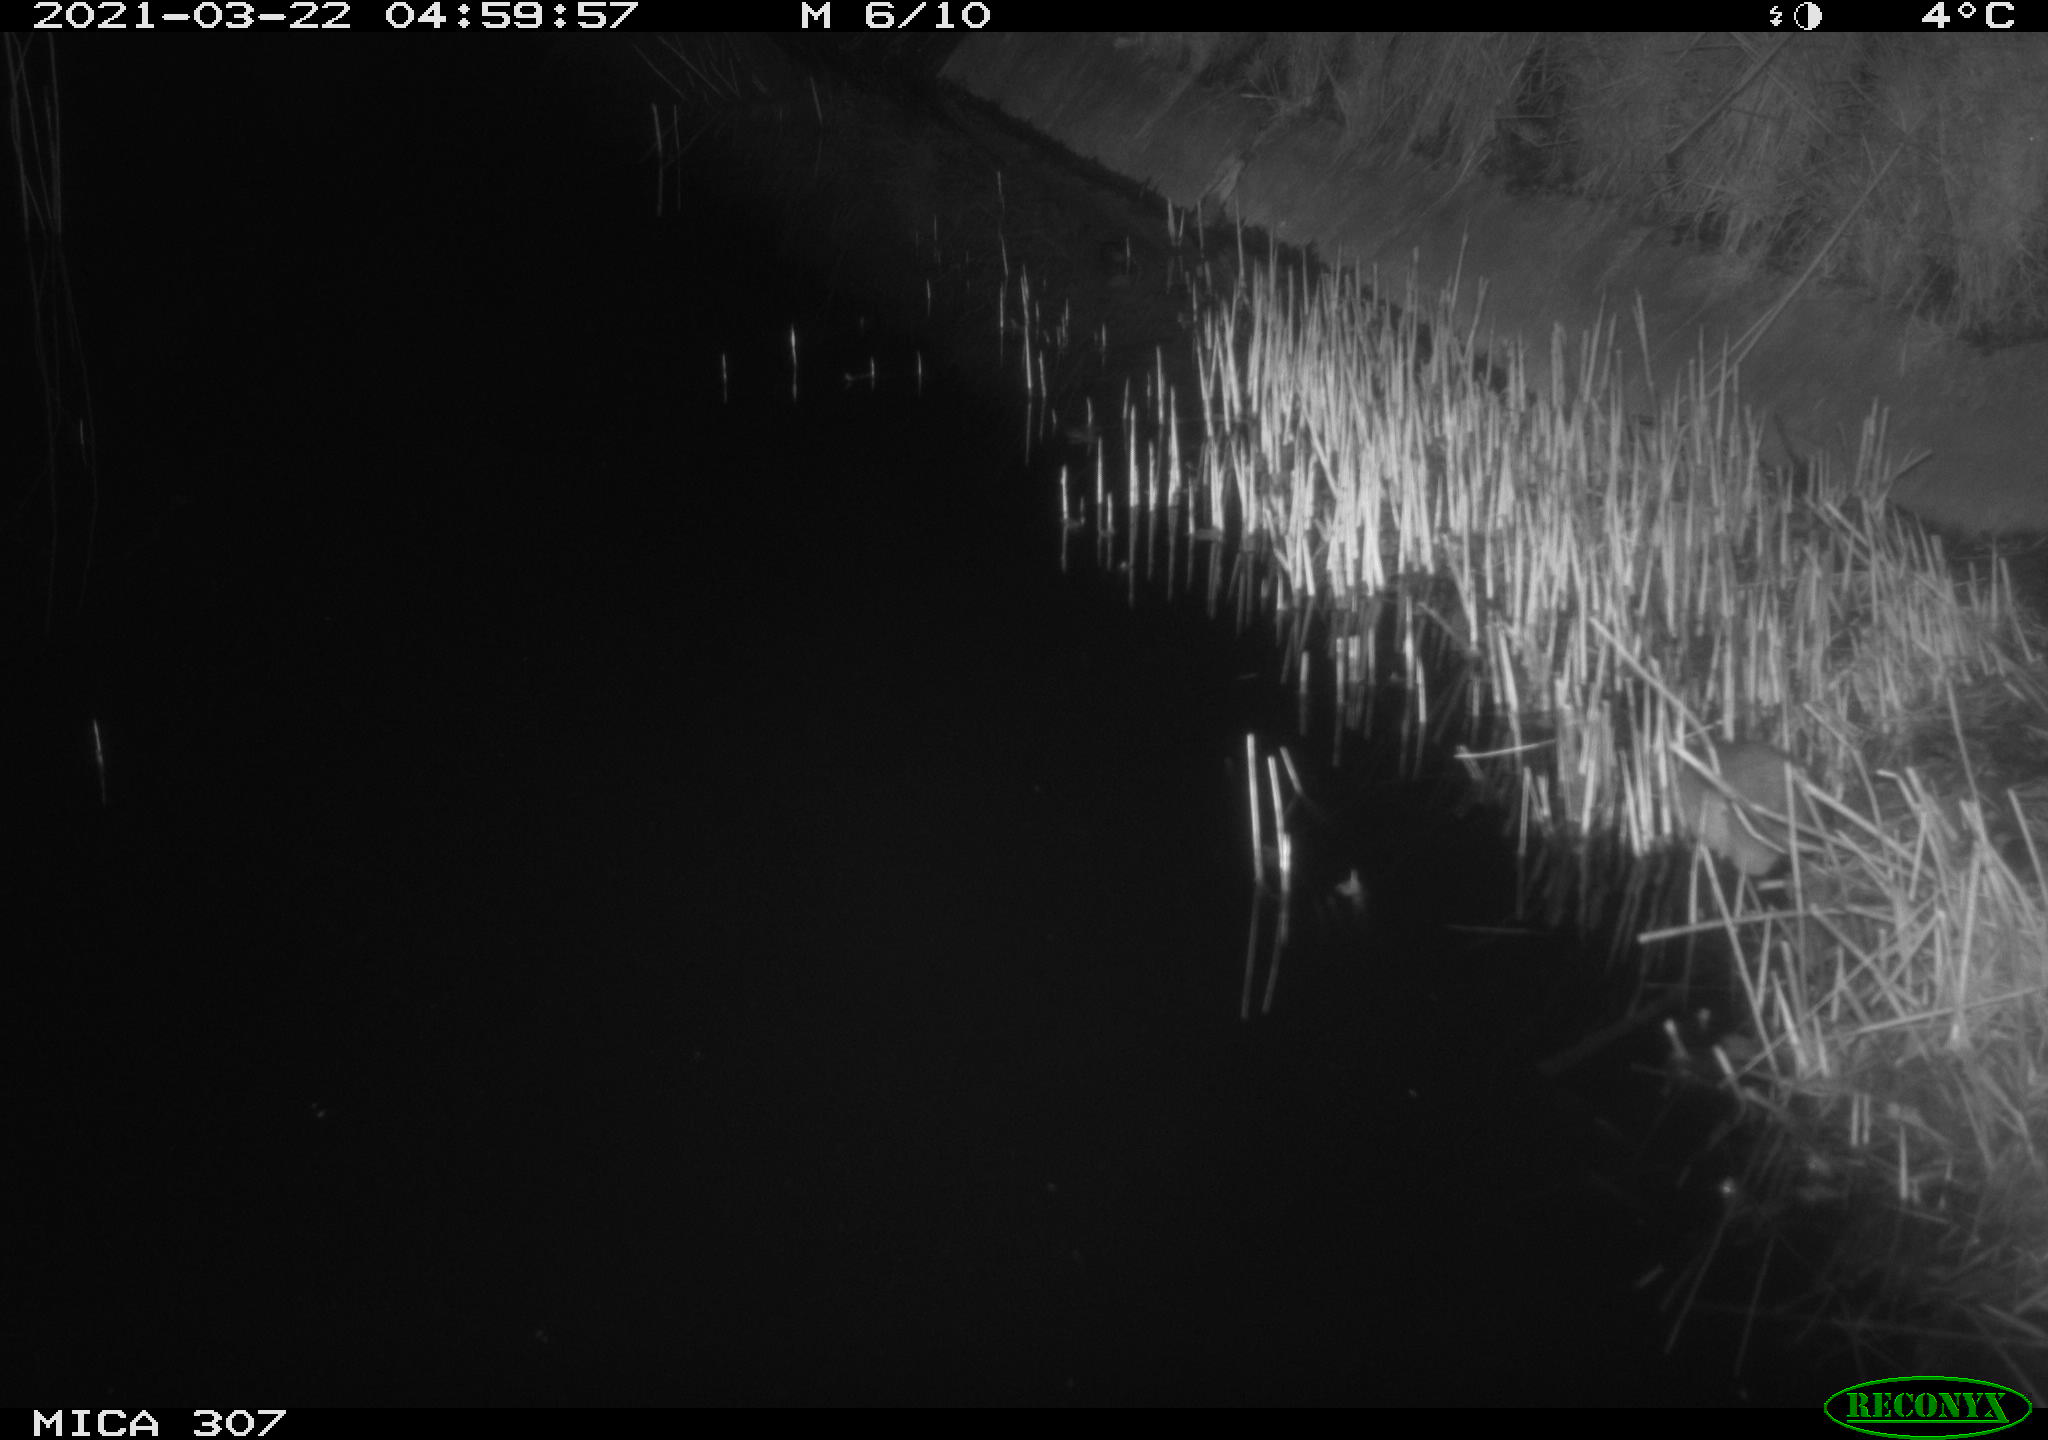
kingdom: Animalia
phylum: Chordata
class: Mammalia
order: Rodentia
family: Muridae
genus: Rattus
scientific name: Rattus norvegicus
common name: Brown rat
